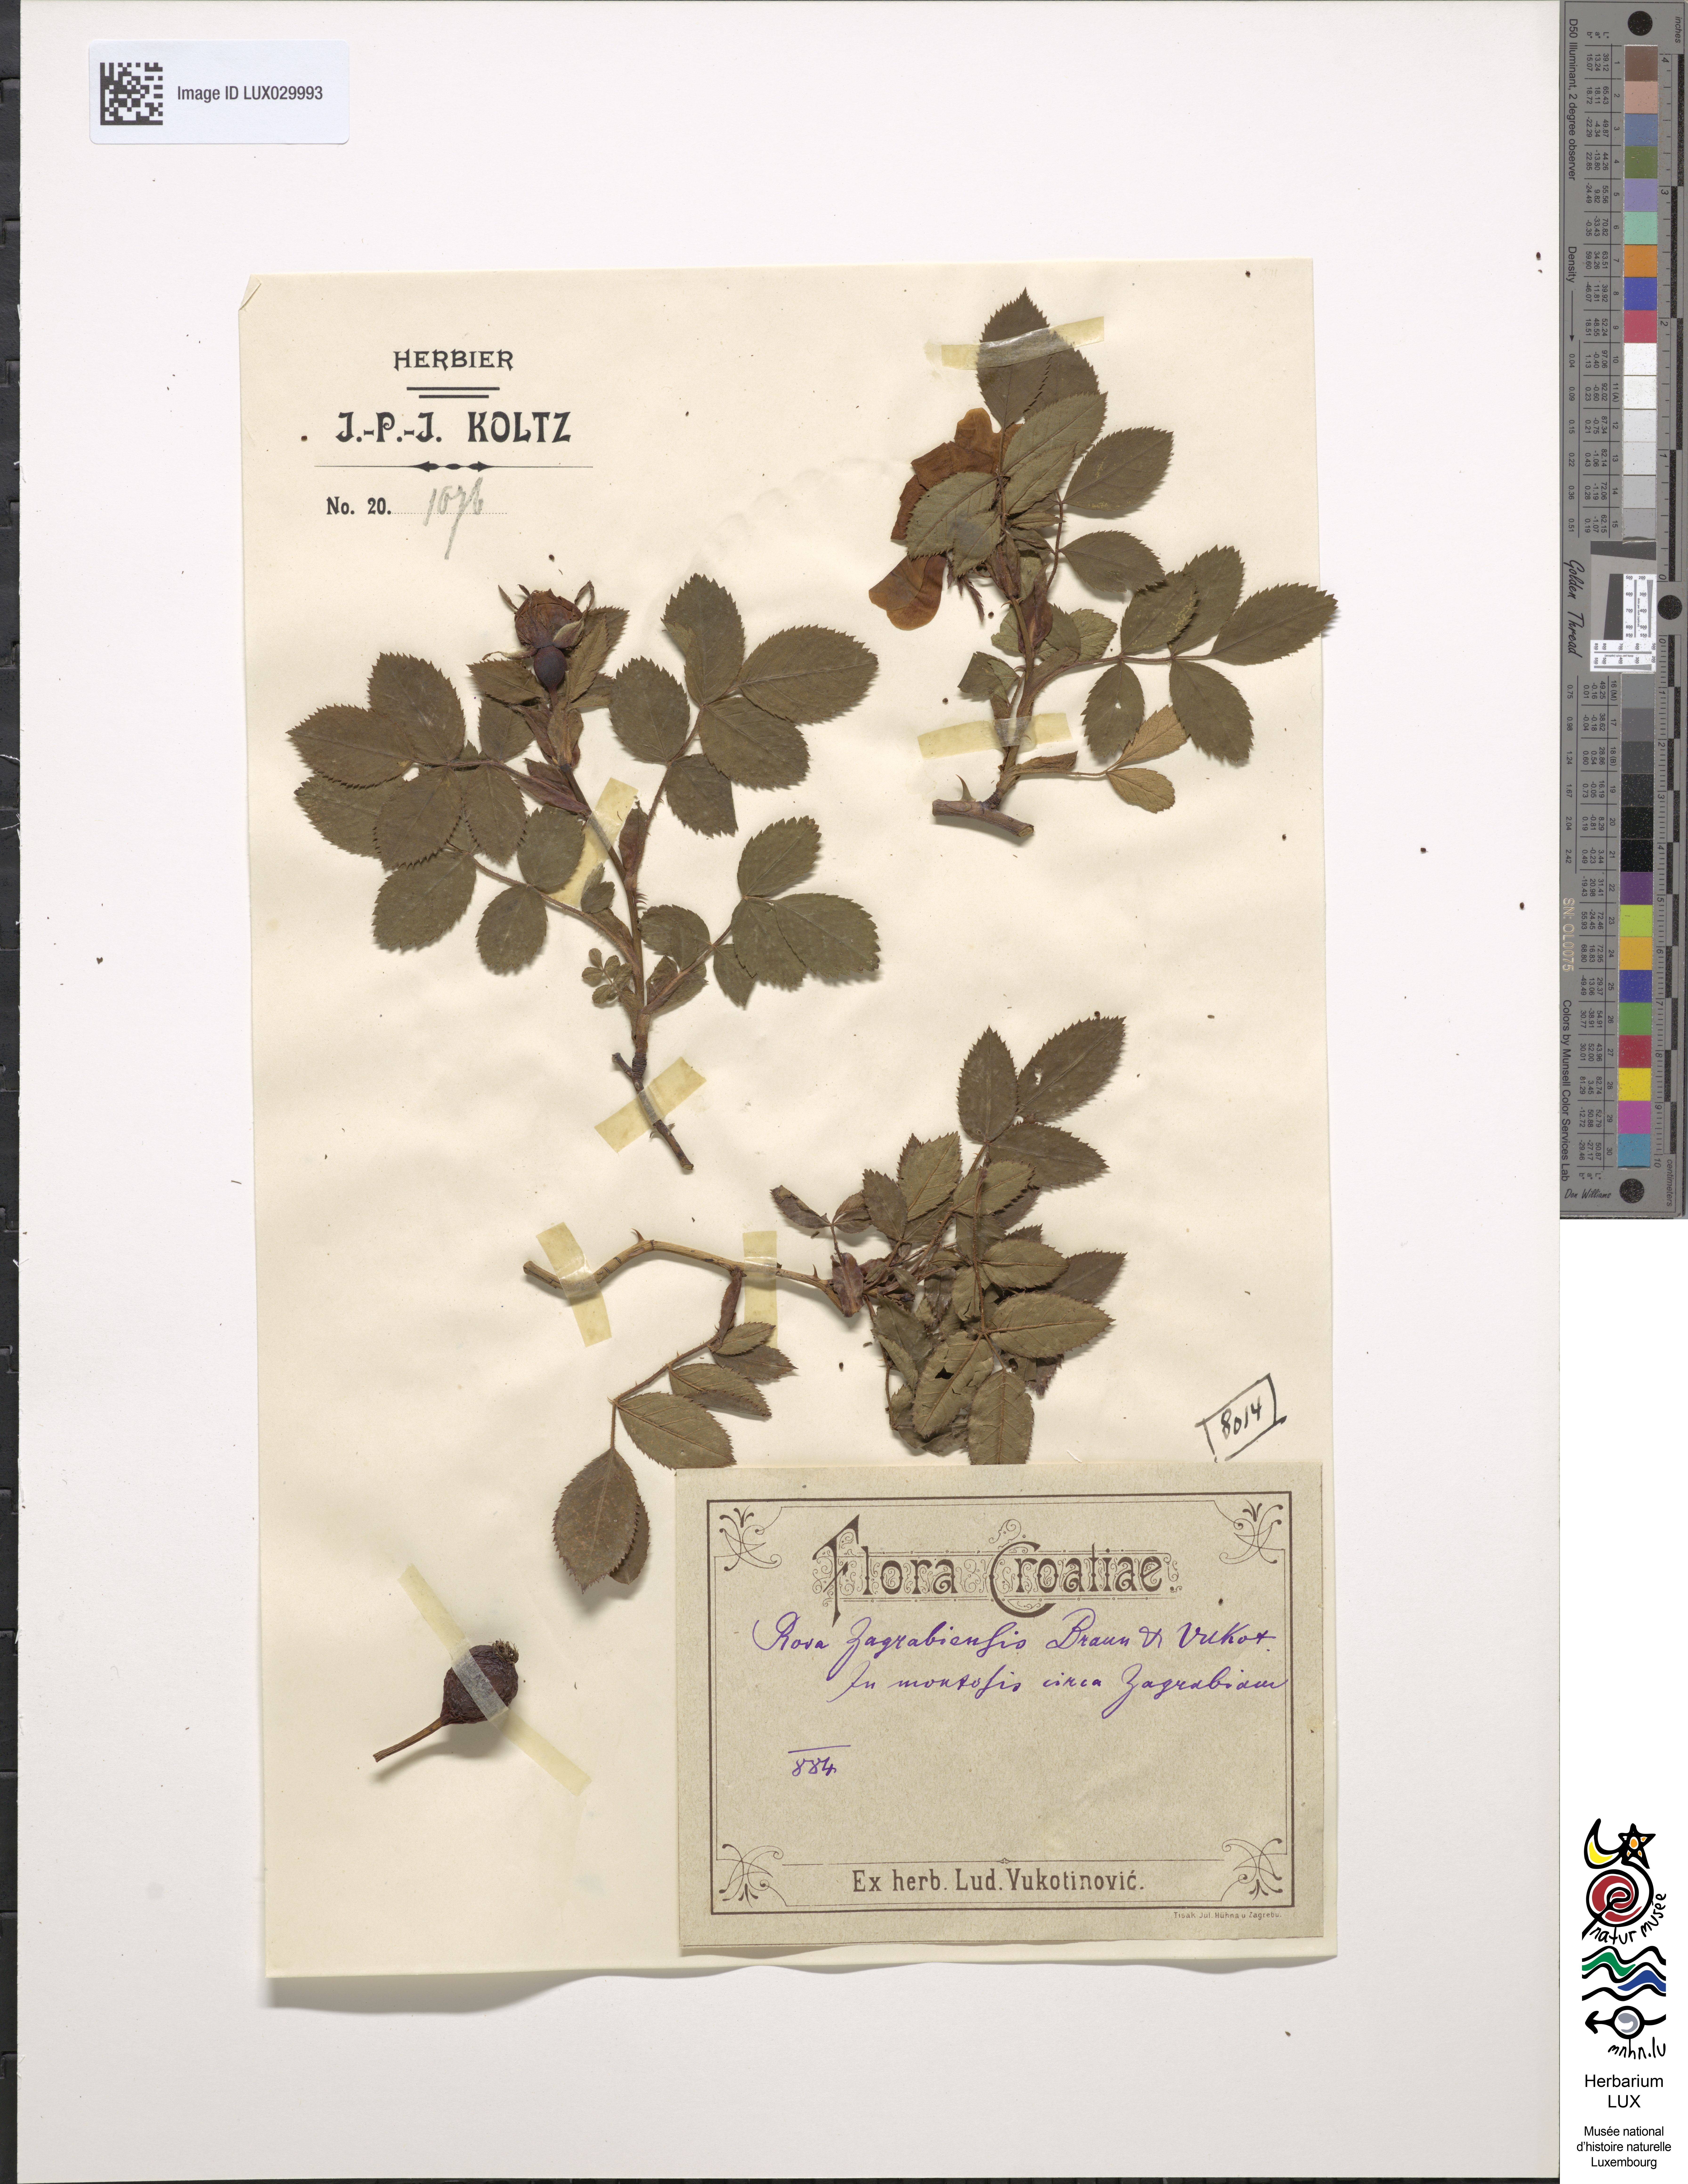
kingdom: Plantae
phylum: Tracheophyta
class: Magnoliopsida
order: Rosales
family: Rosaceae
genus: Rosa
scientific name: Rosa marginata
